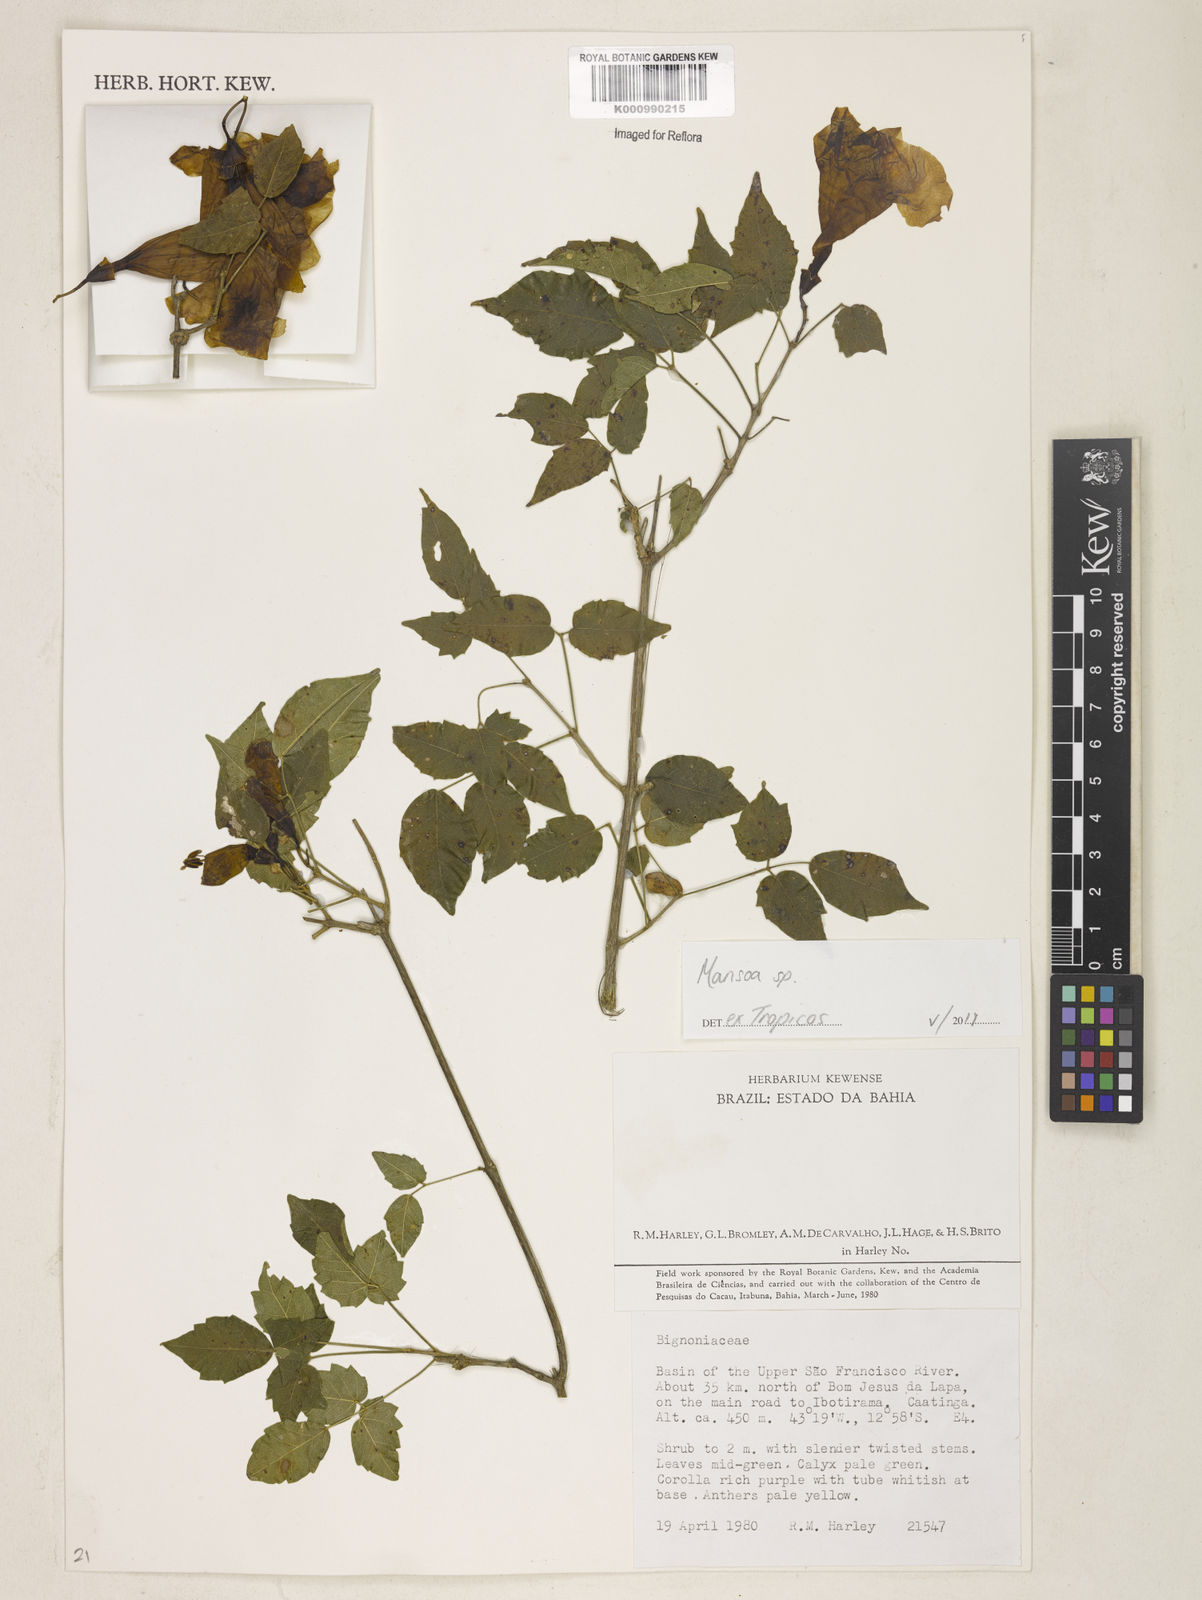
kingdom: Plantae
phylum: Tracheophyta
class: Magnoliopsida
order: Lamiales
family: Bignoniaceae
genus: Mansoa
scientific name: Mansoa
